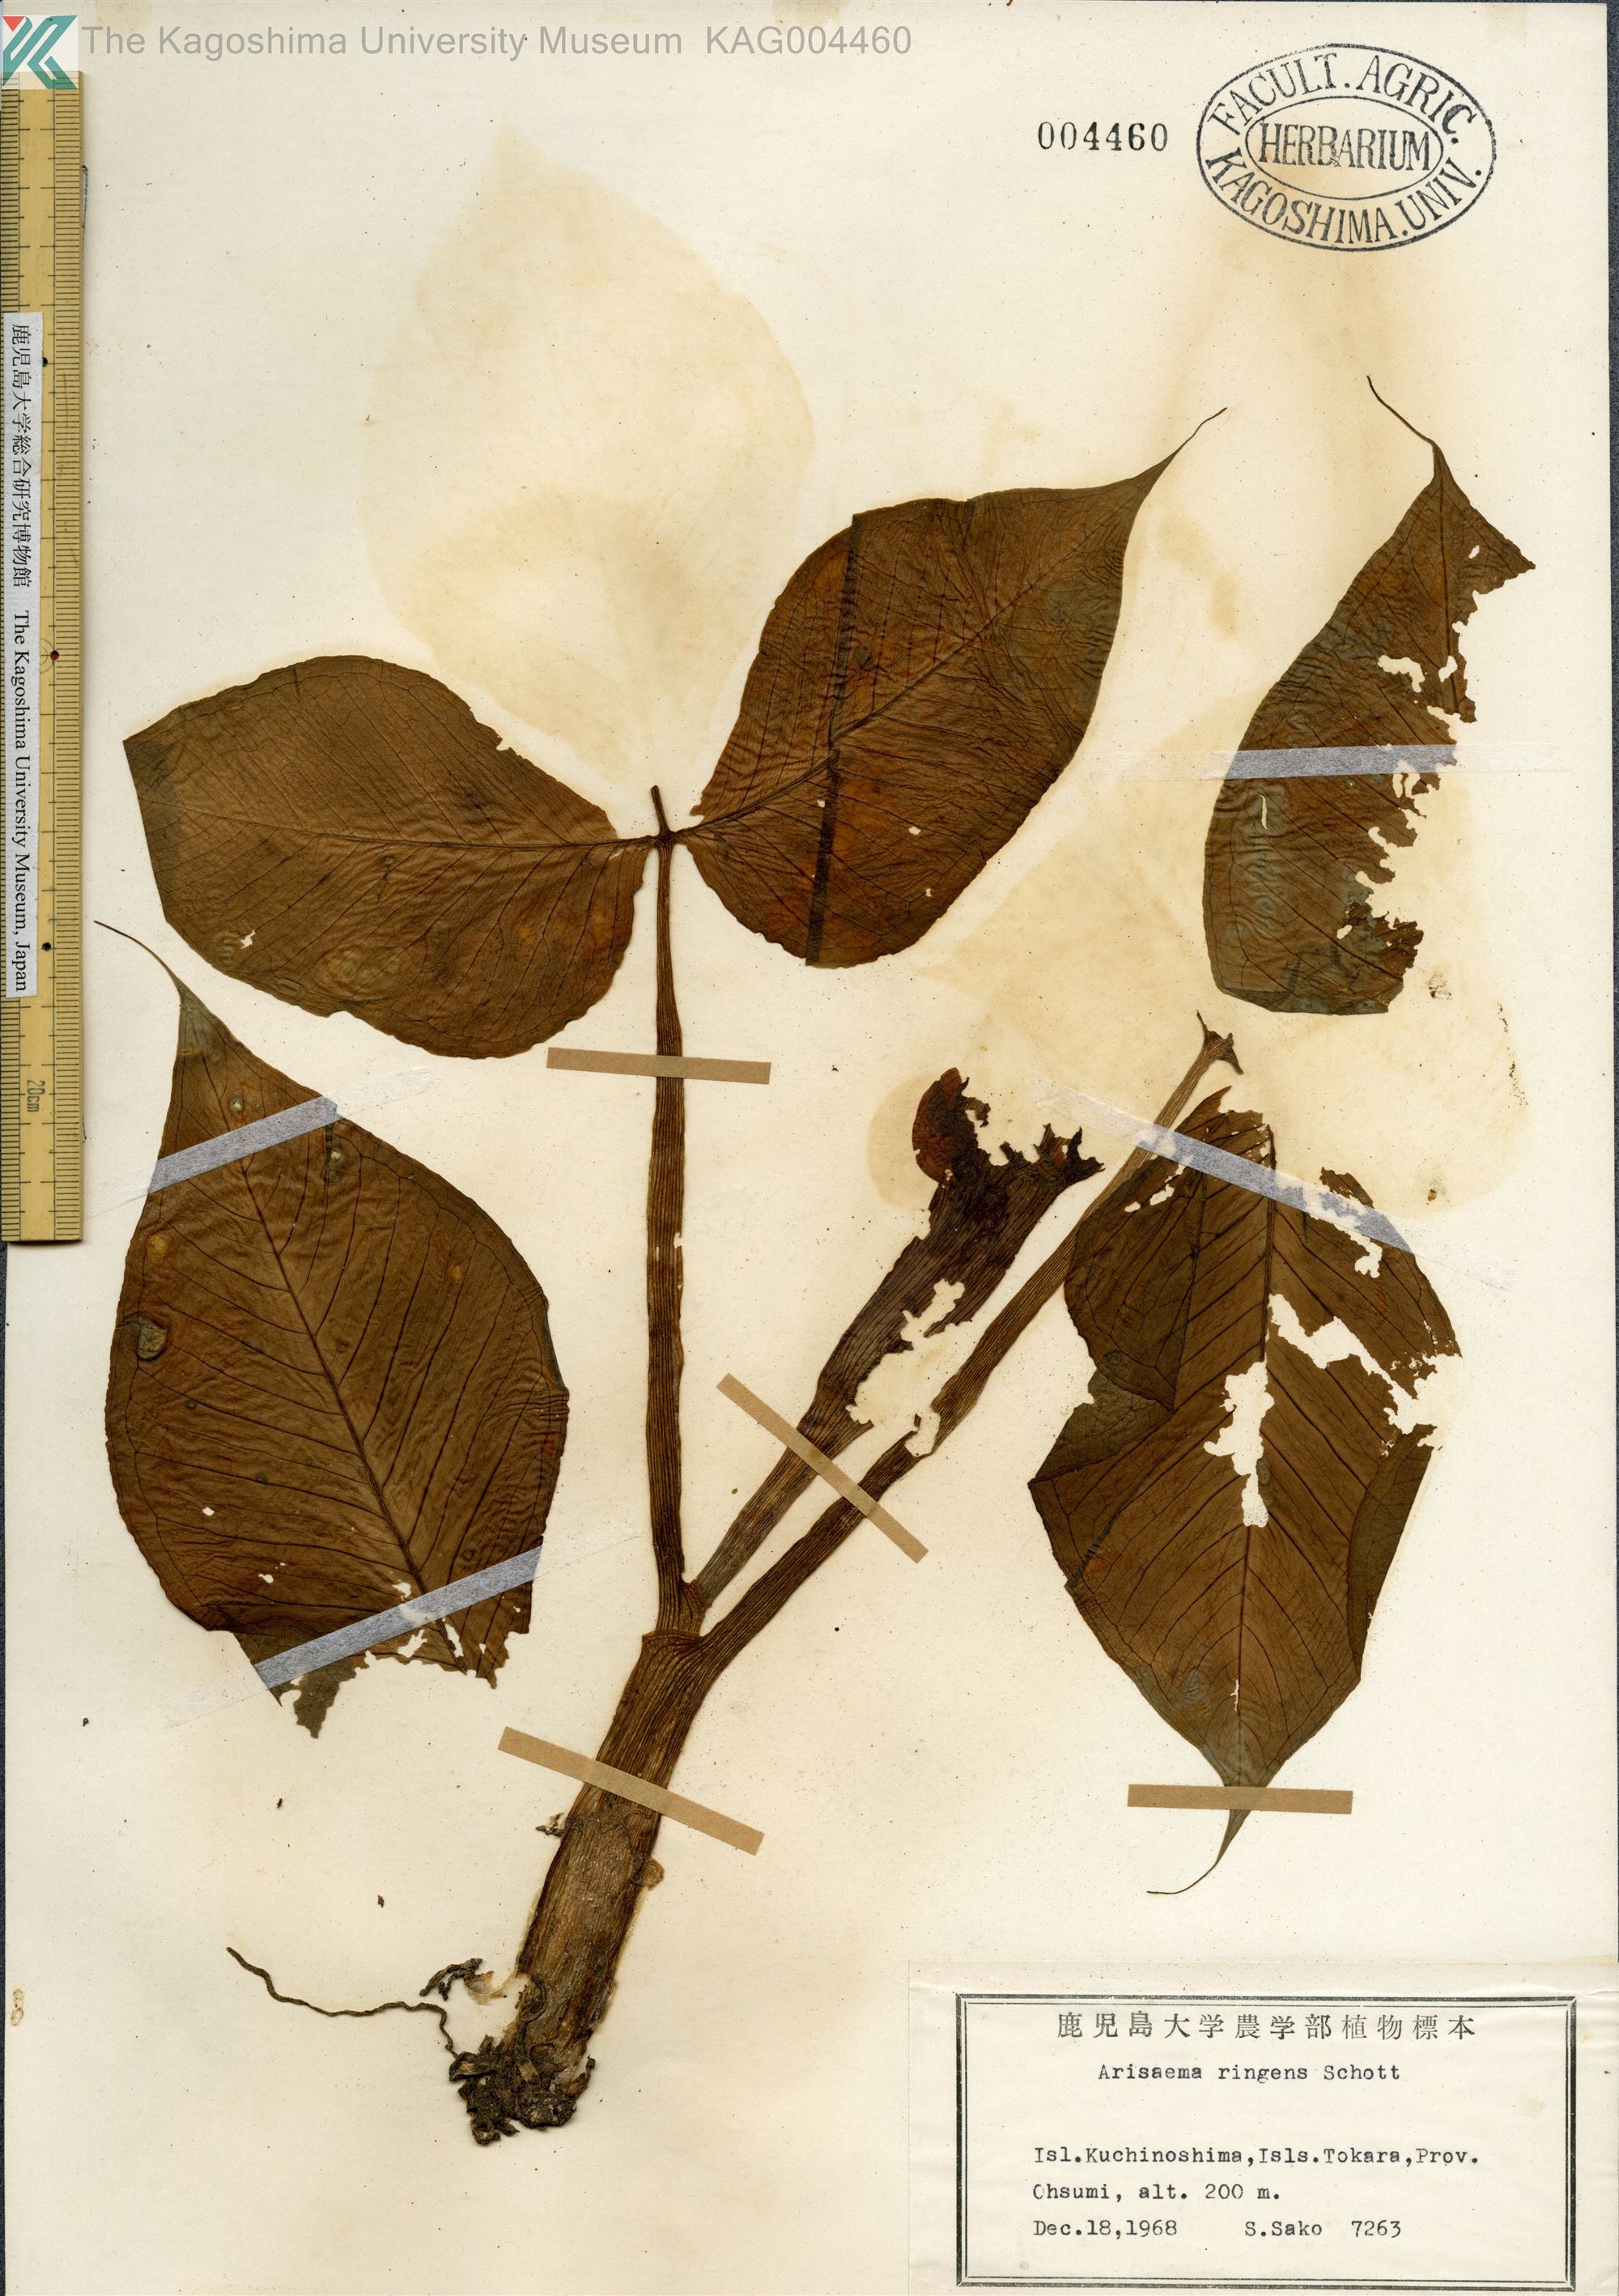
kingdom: Plantae
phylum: Tracheophyta
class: Liliopsida
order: Alismatales
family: Araceae
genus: Arisaema
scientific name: Arisaema ringens
